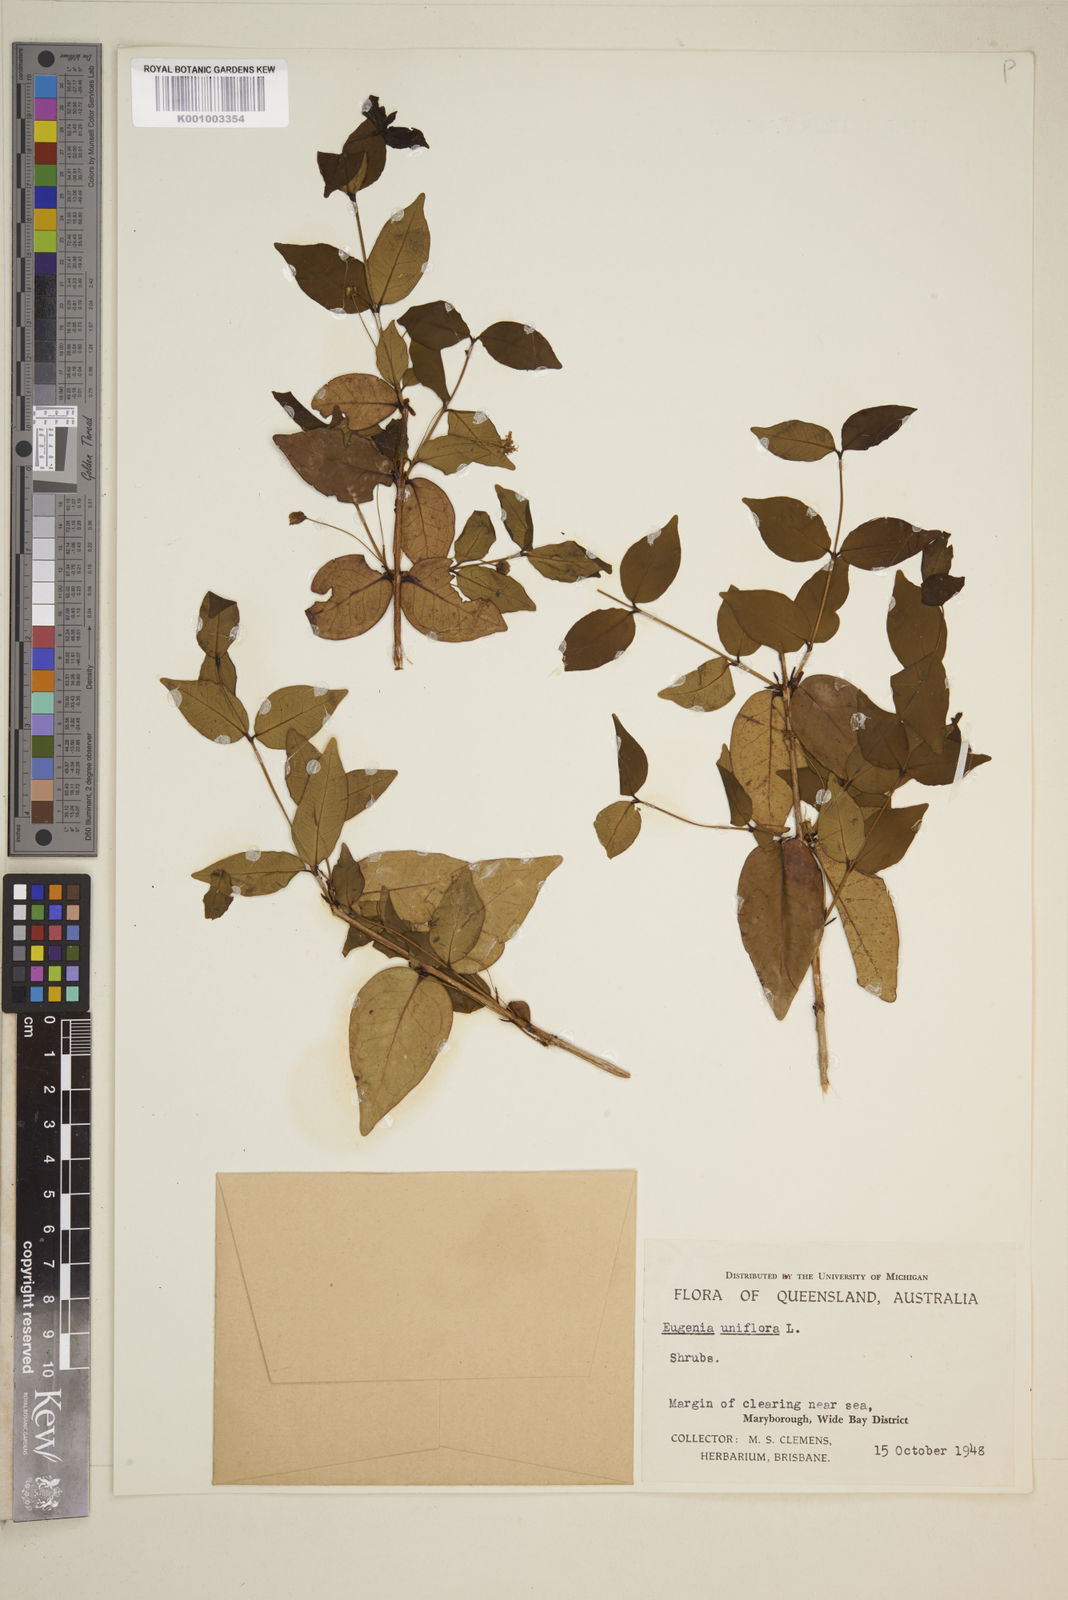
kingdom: Plantae
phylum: Tracheophyta
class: Magnoliopsida
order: Myrtales
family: Myrtaceae
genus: Eugenia
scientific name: Eugenia uniflora
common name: Surinam cherry
